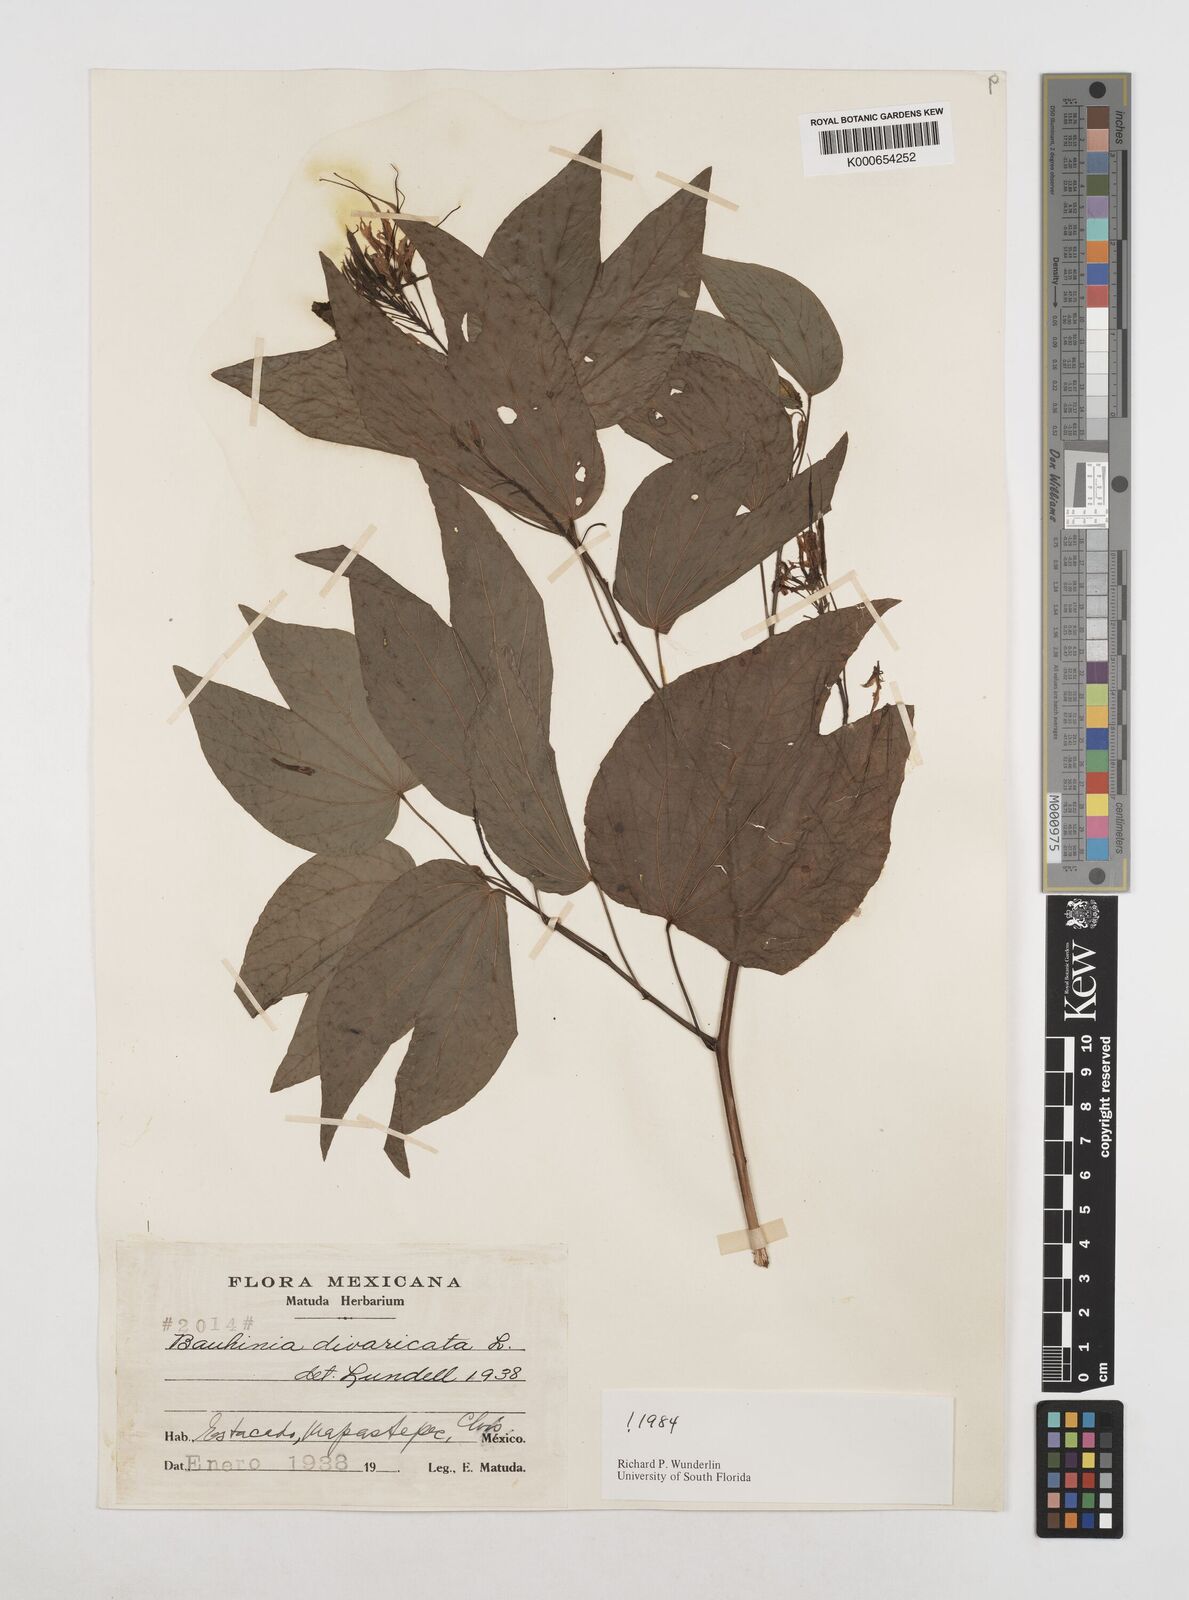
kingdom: Plantae
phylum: Tracheophyta
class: Magnoliopsida
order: Fabales
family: Fabaceae
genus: Bauhinia
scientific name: Bauhinia divaricata
